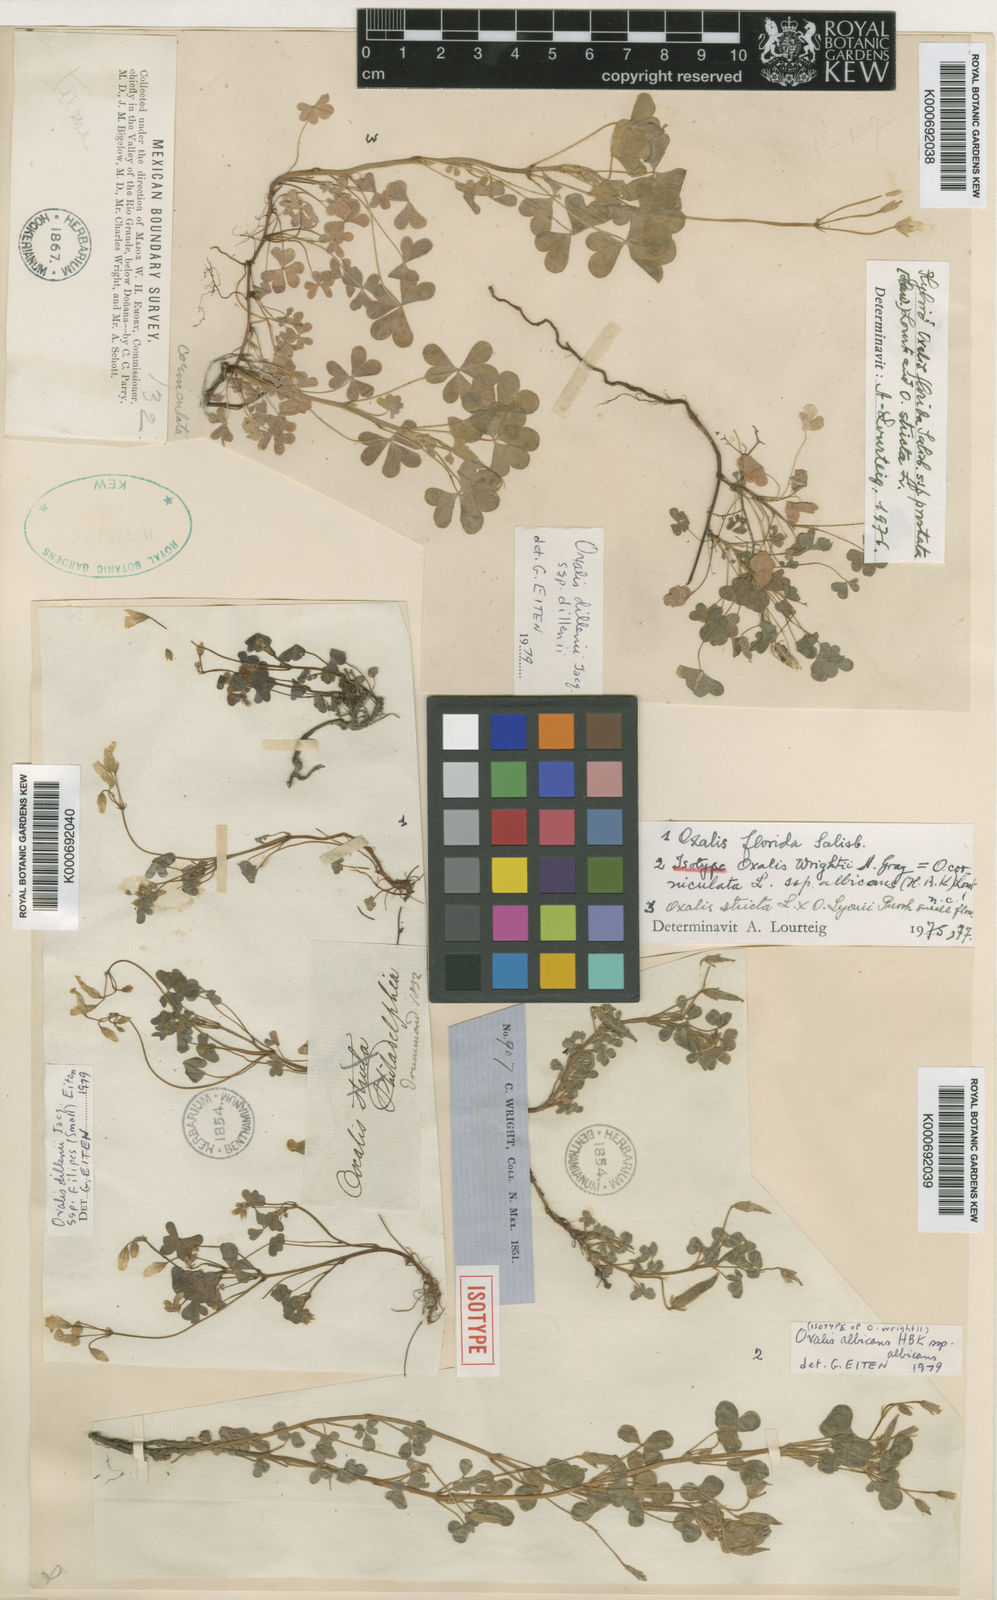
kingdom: Plantae
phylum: Tracheophyta
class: Magnoliopsida
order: Oxalidales
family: Oxalidaceae
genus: Oxalis
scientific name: Oxalis albicans
